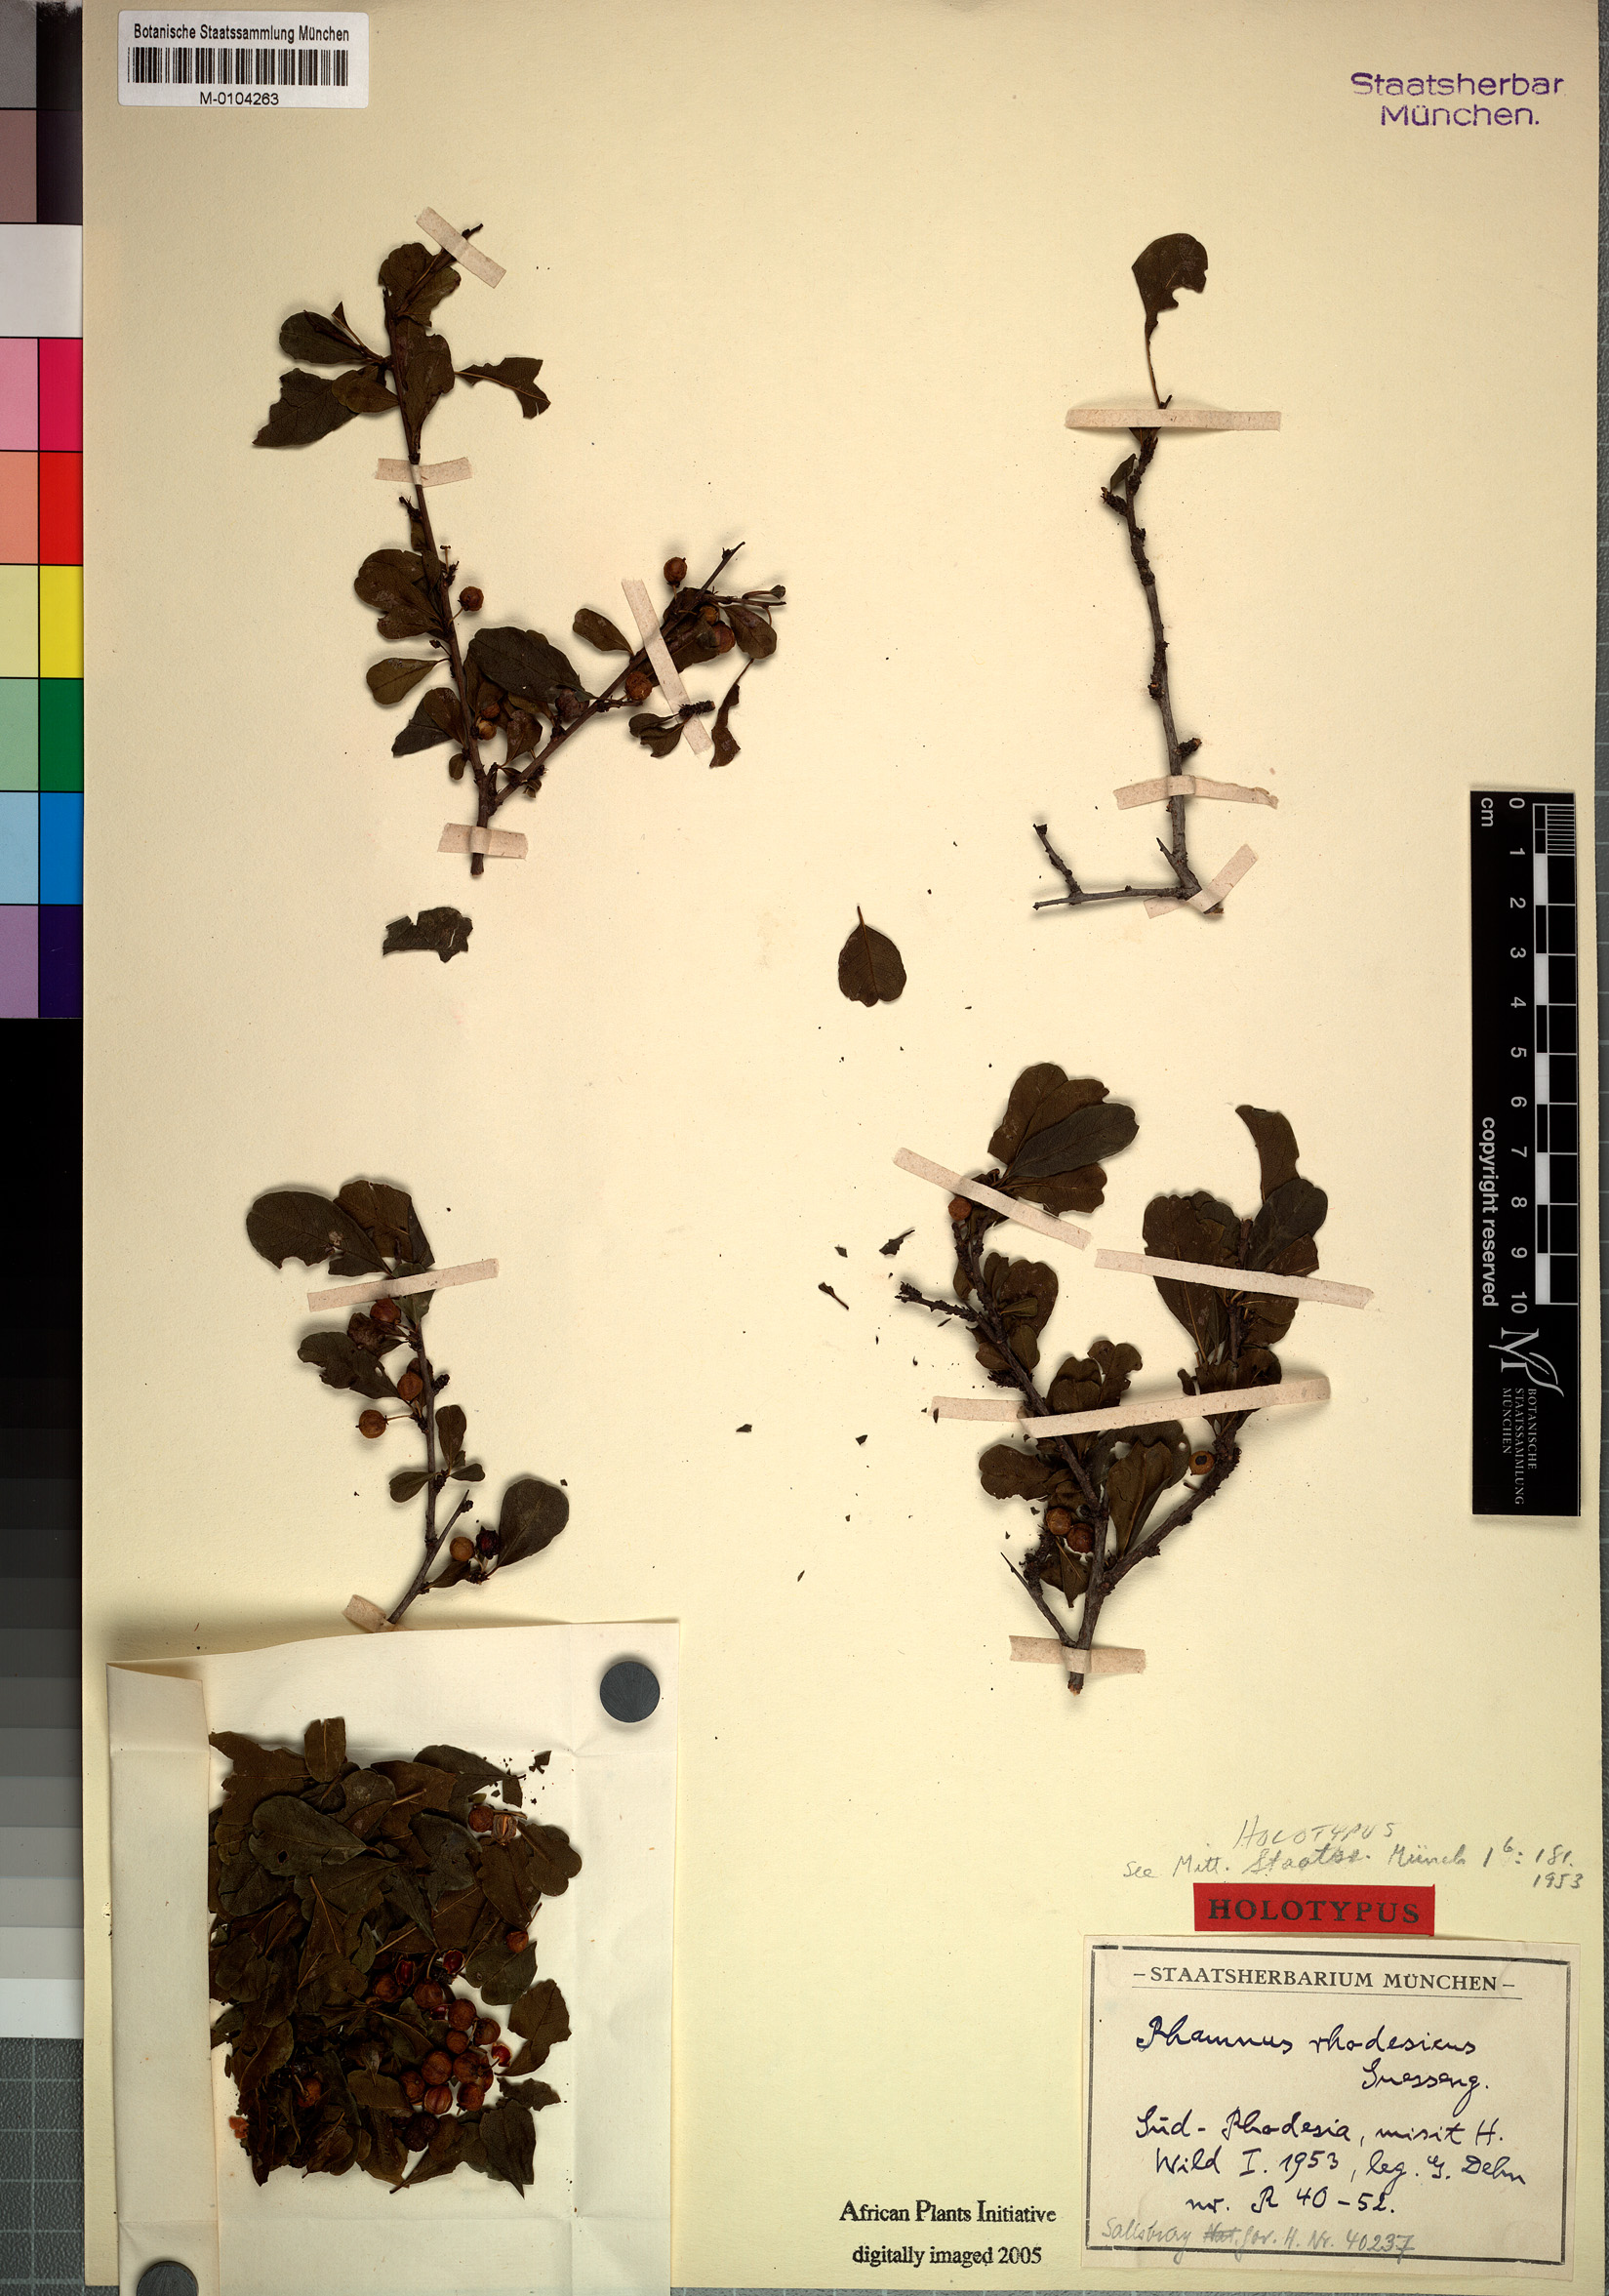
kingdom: Plantae
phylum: Tracheophyta
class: Magnoliopsida
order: Rosales
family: Rhamnaceae
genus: Rhamnus
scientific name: Rhamnus staddo
